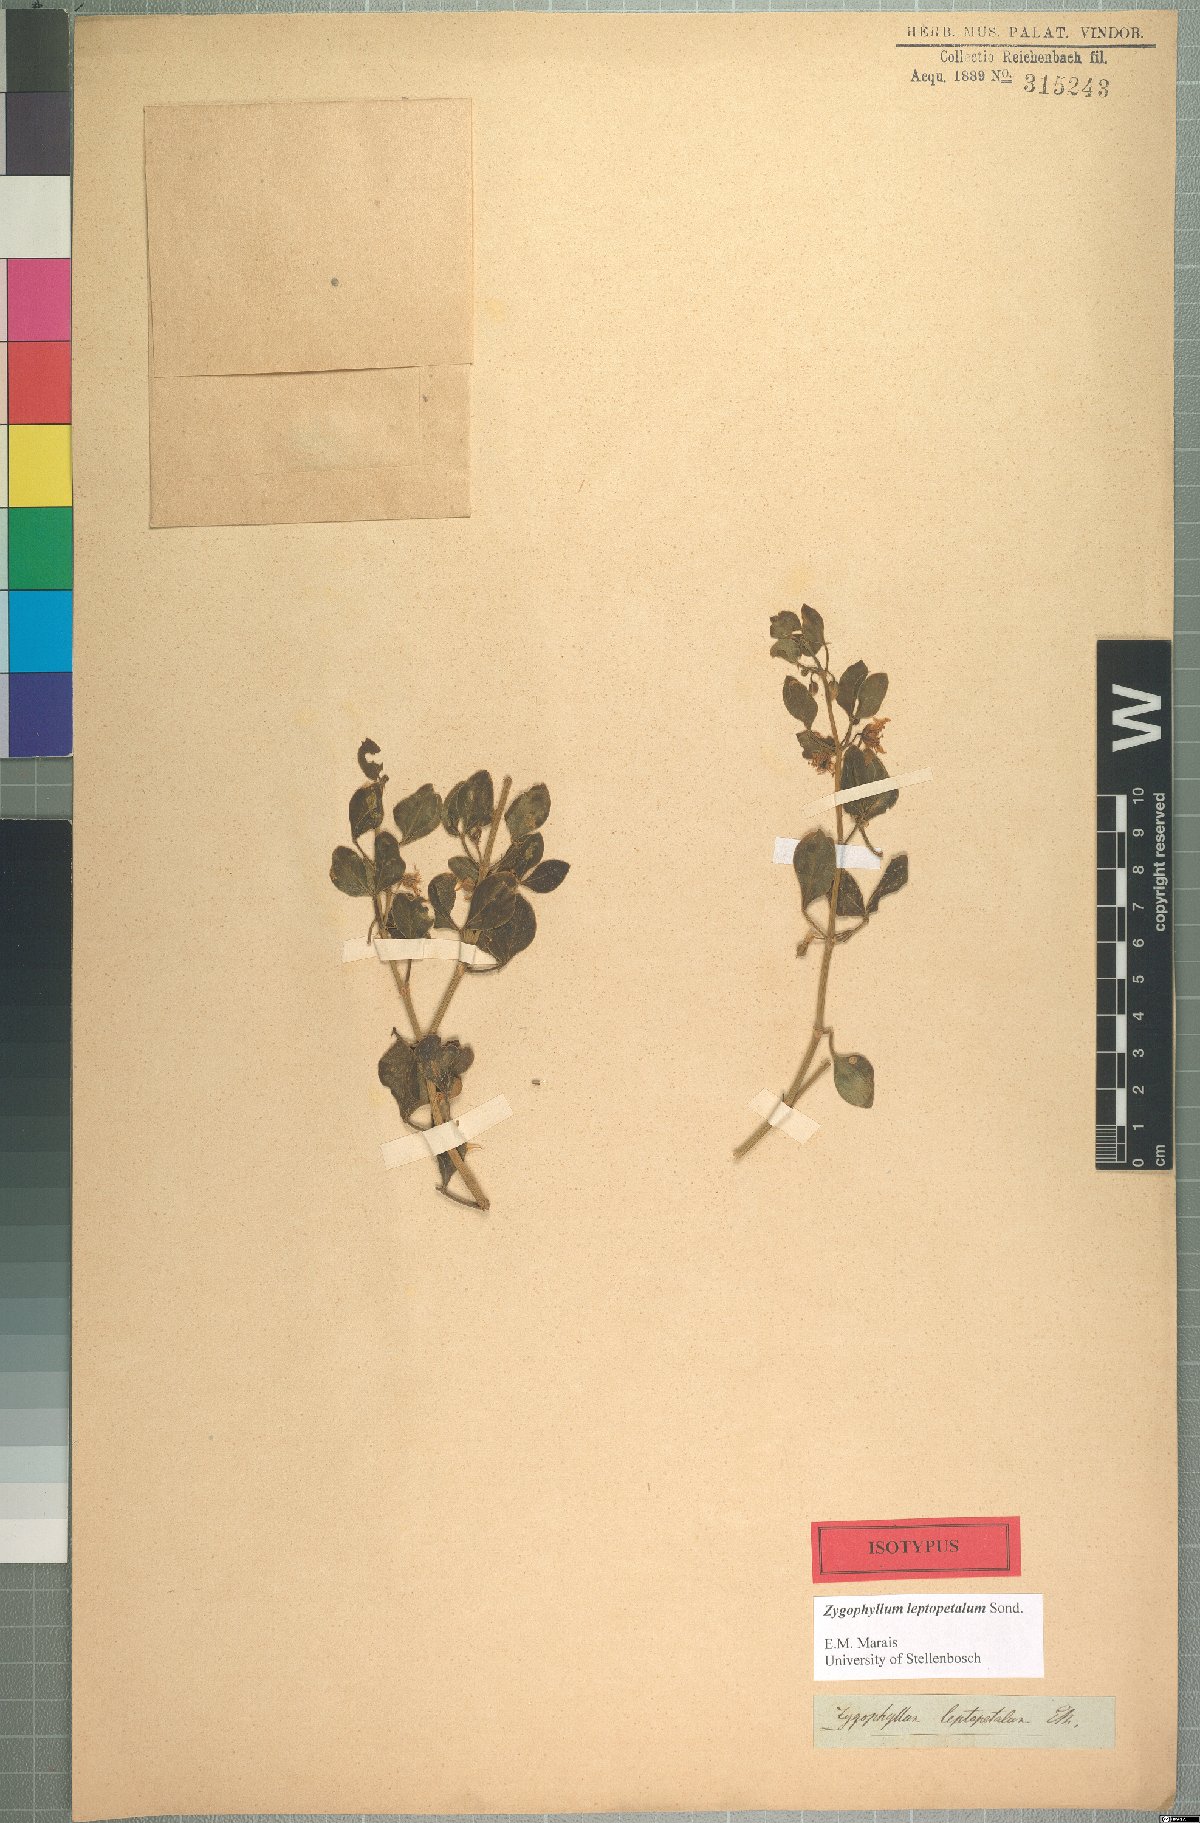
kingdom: Plantae
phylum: Tracheophyta
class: Magnoliopsida
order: Zygophyllales
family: Zygophyllaceae
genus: Roepera
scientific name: Roepera leptopetala
